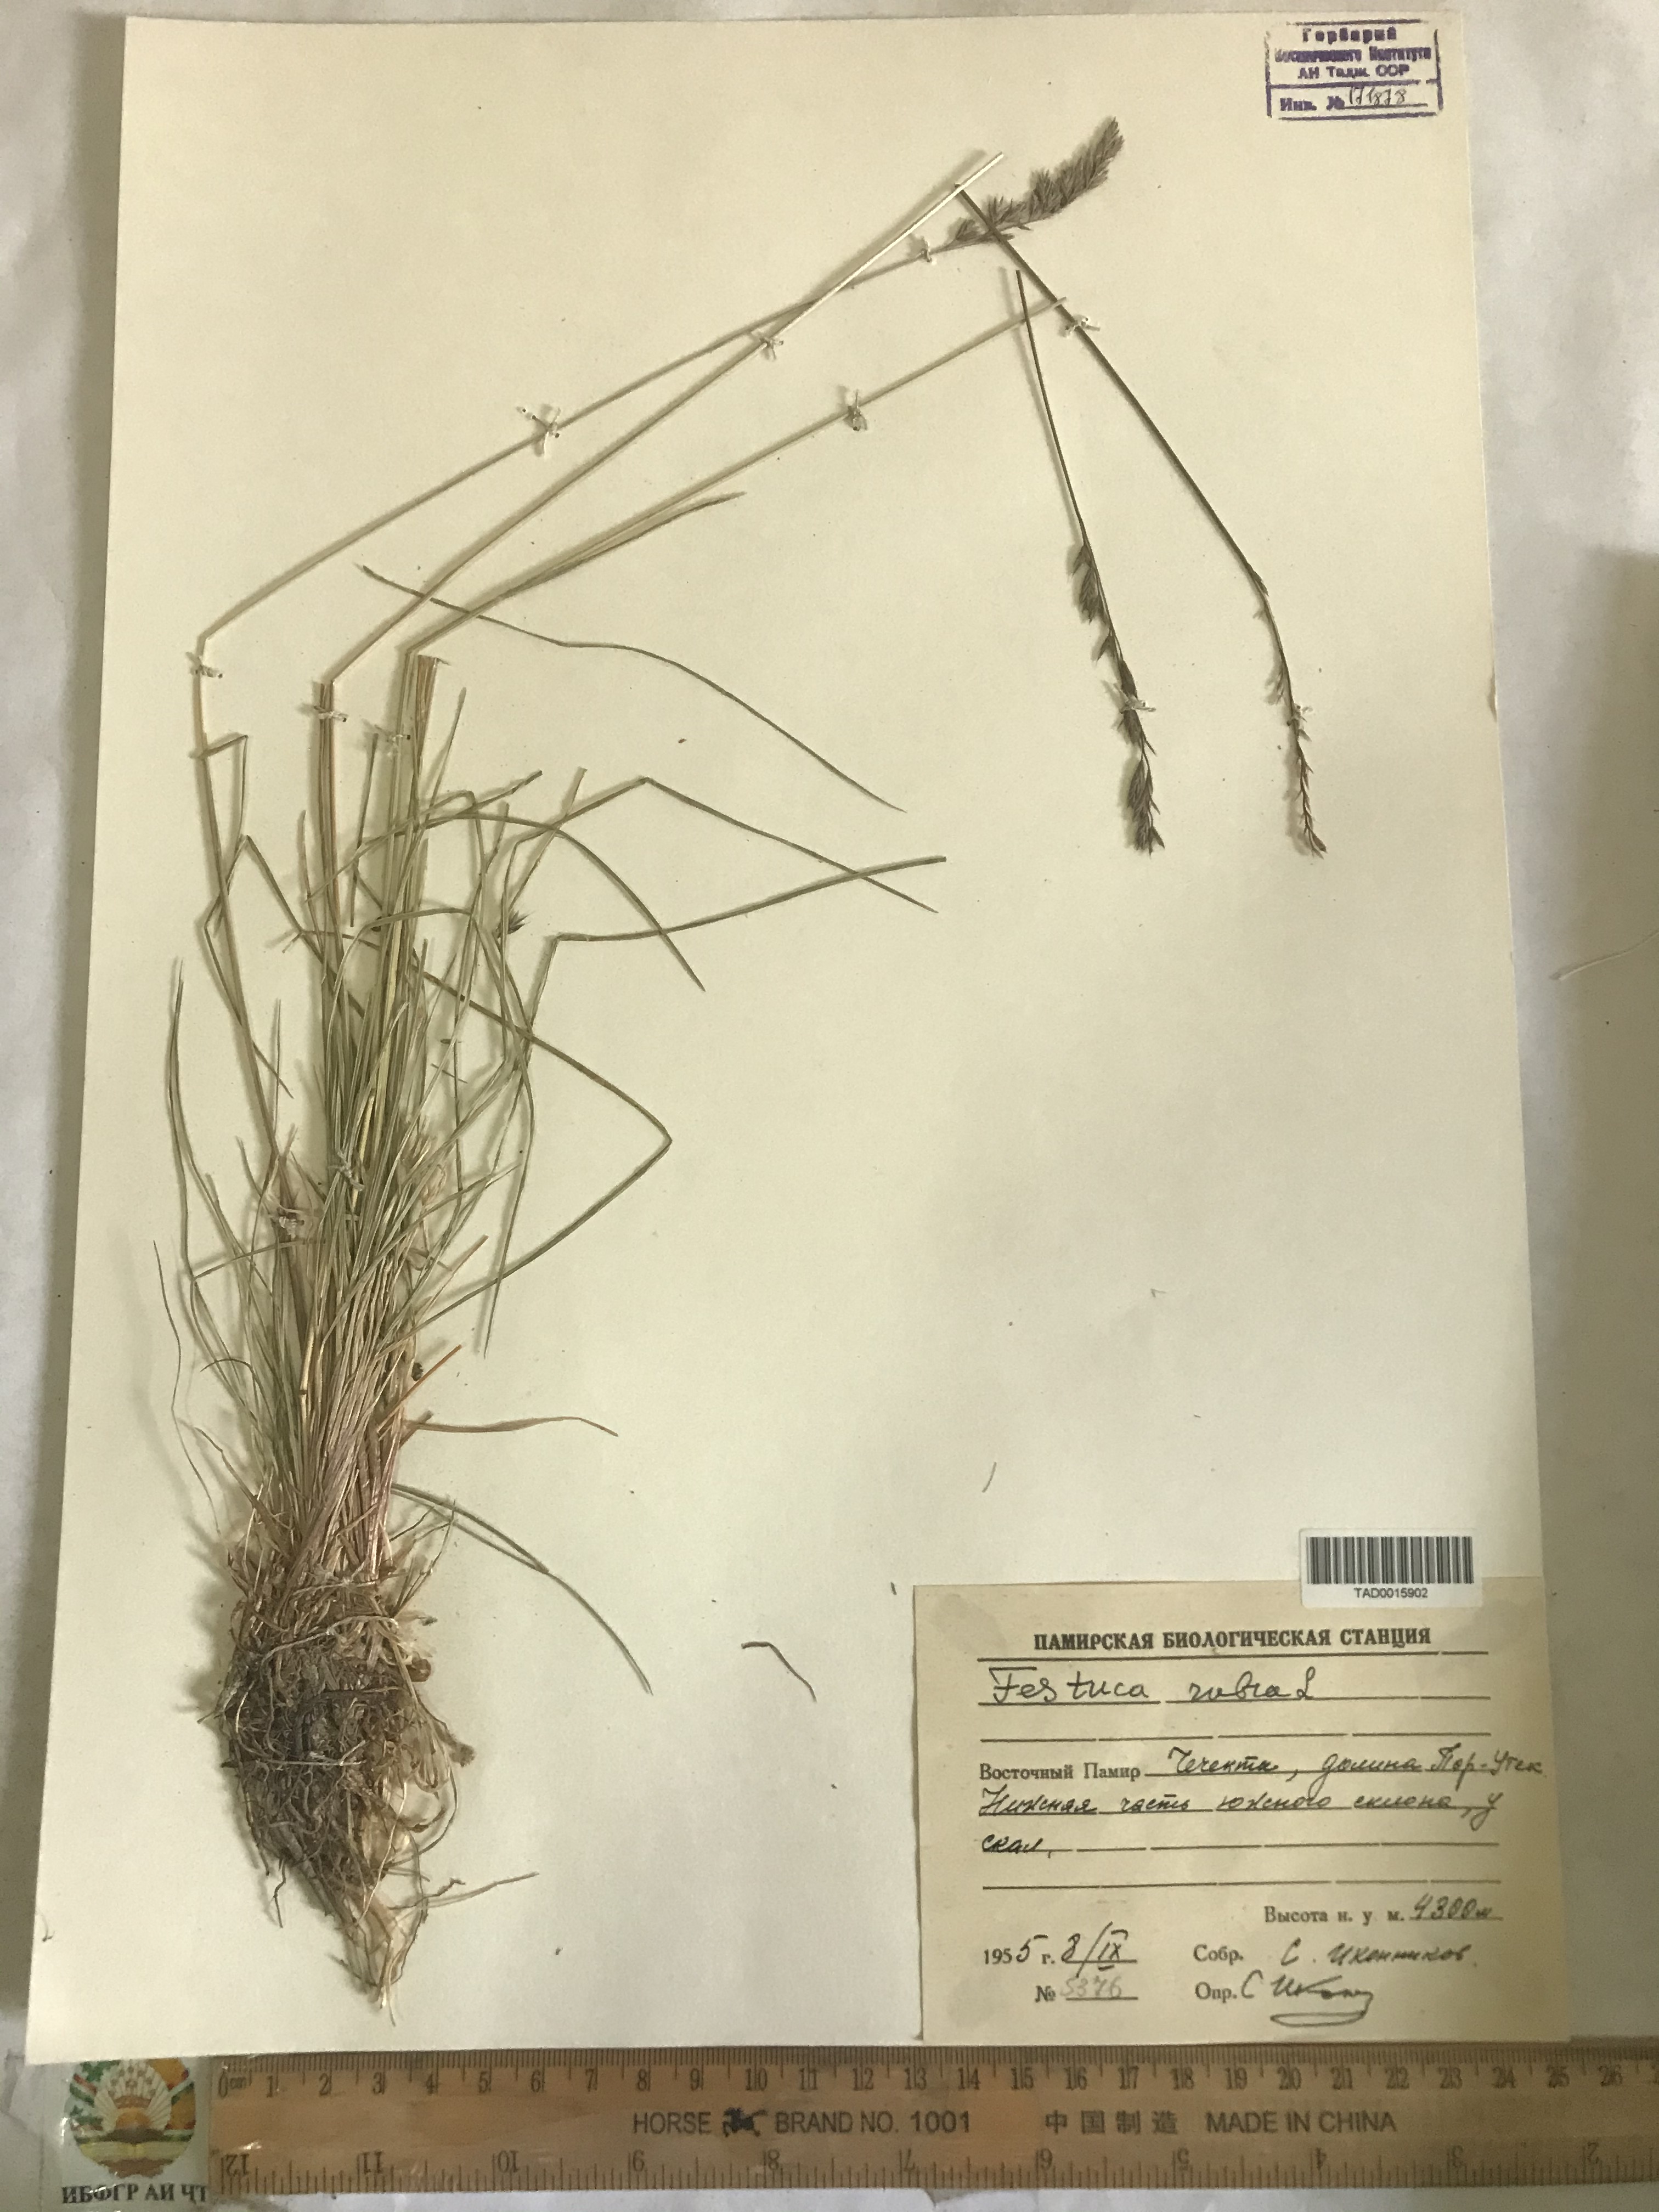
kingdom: Plantae
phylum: Tracheophyta
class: Liliopsida
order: Poales
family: Poaceae
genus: Festuca
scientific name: Festuca rubra
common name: Red fescue
